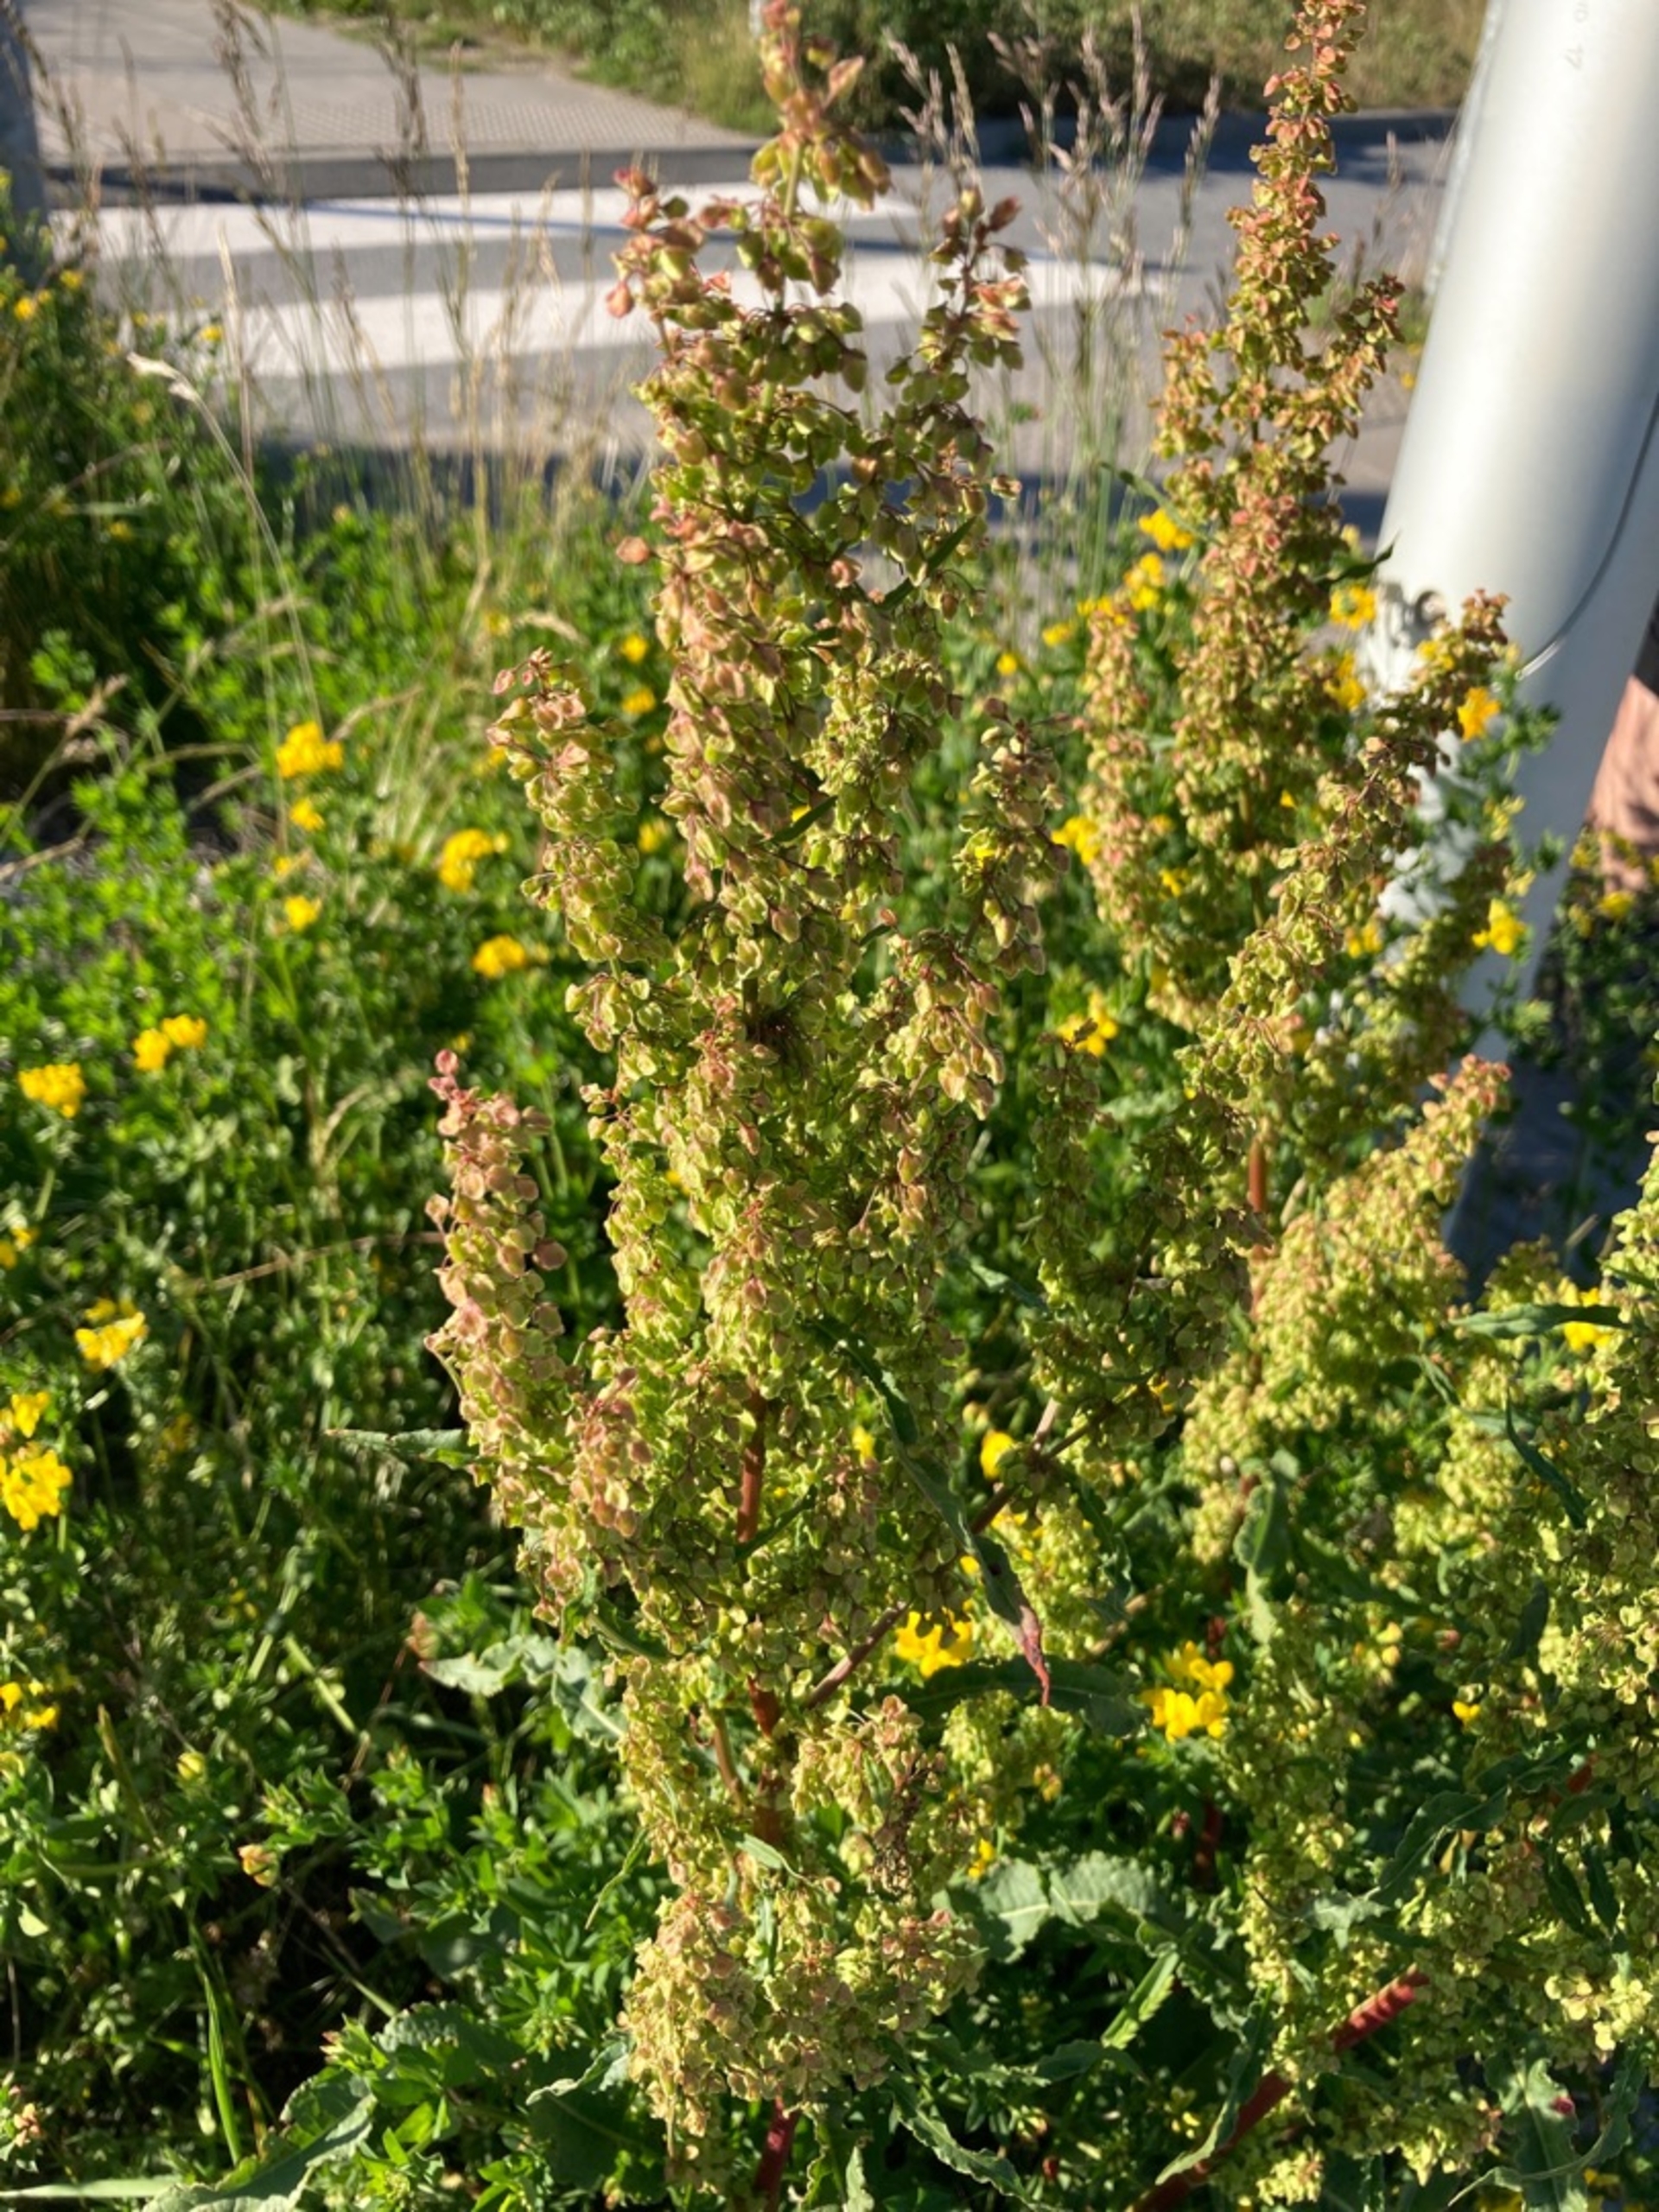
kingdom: Plantae
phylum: Tracheophyta
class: Magnoliopsida
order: Caryophyllales
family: Polygonaceae
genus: Rumex
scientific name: Rumex crispus
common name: Kruset skræppe
